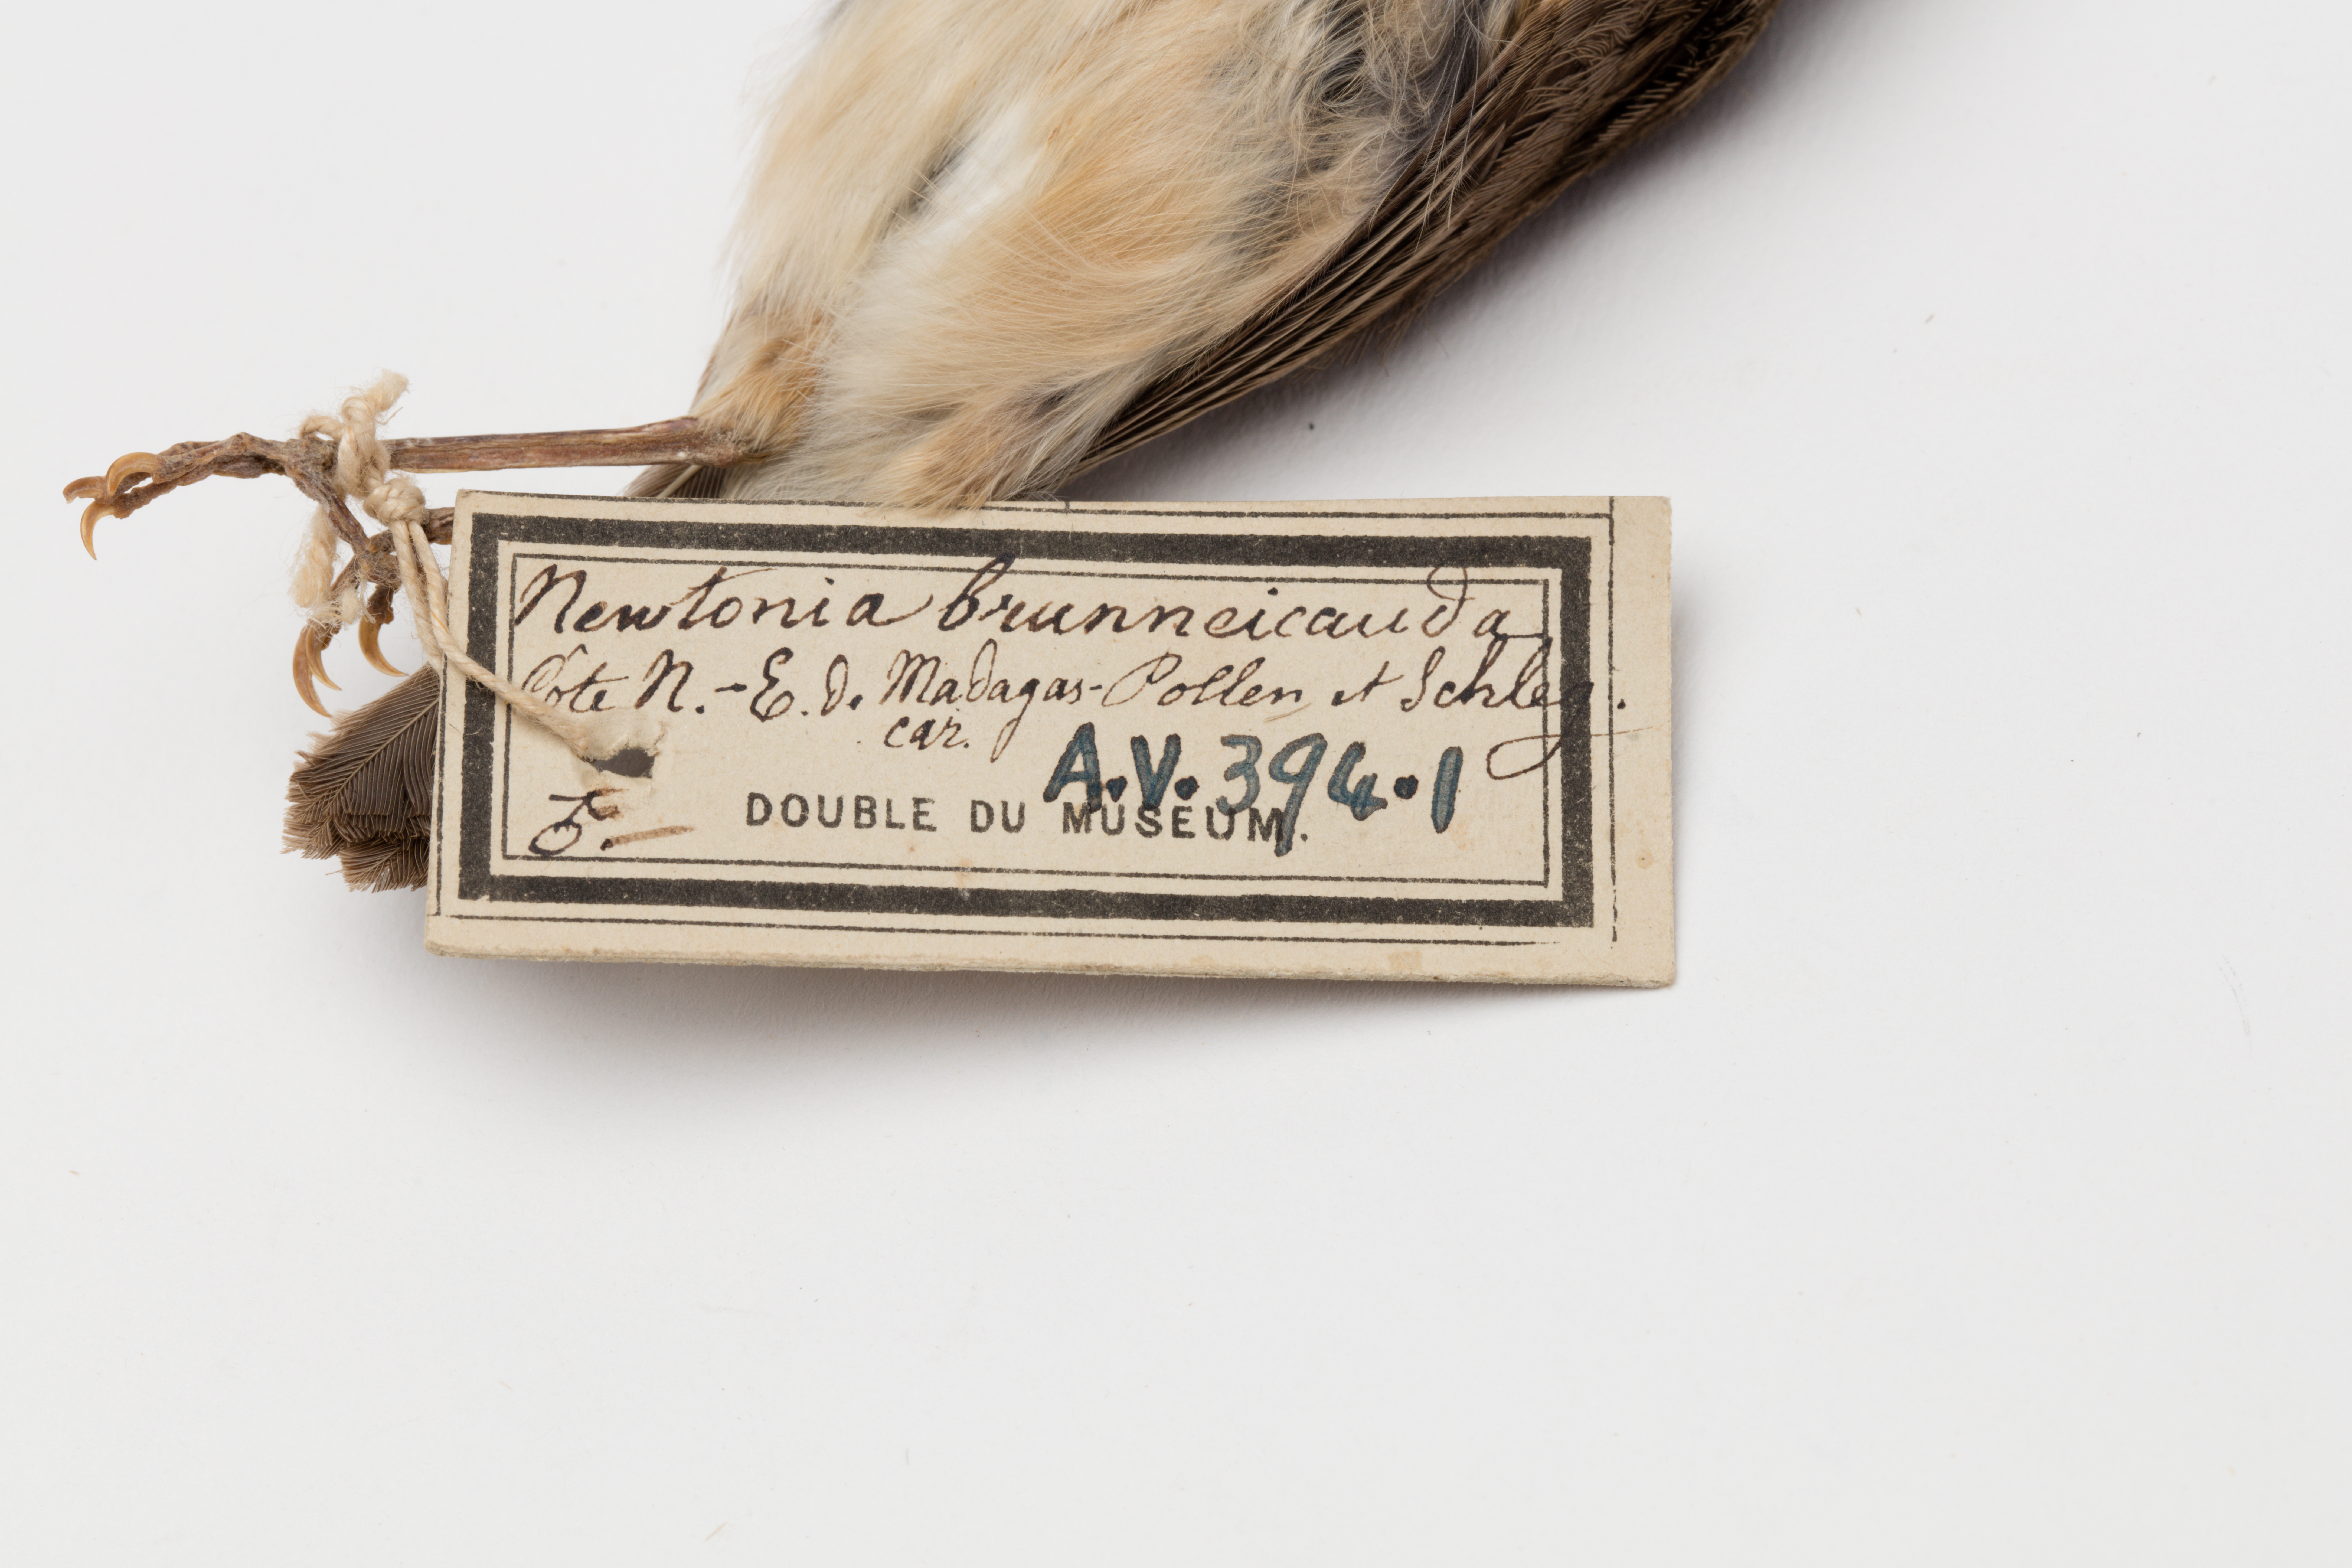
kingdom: Animalia
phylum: Chordata
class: Aves
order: Passeriformes
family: Vangidae
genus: Newtonia
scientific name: Newtonia brunneicauda
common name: Common newtonia
